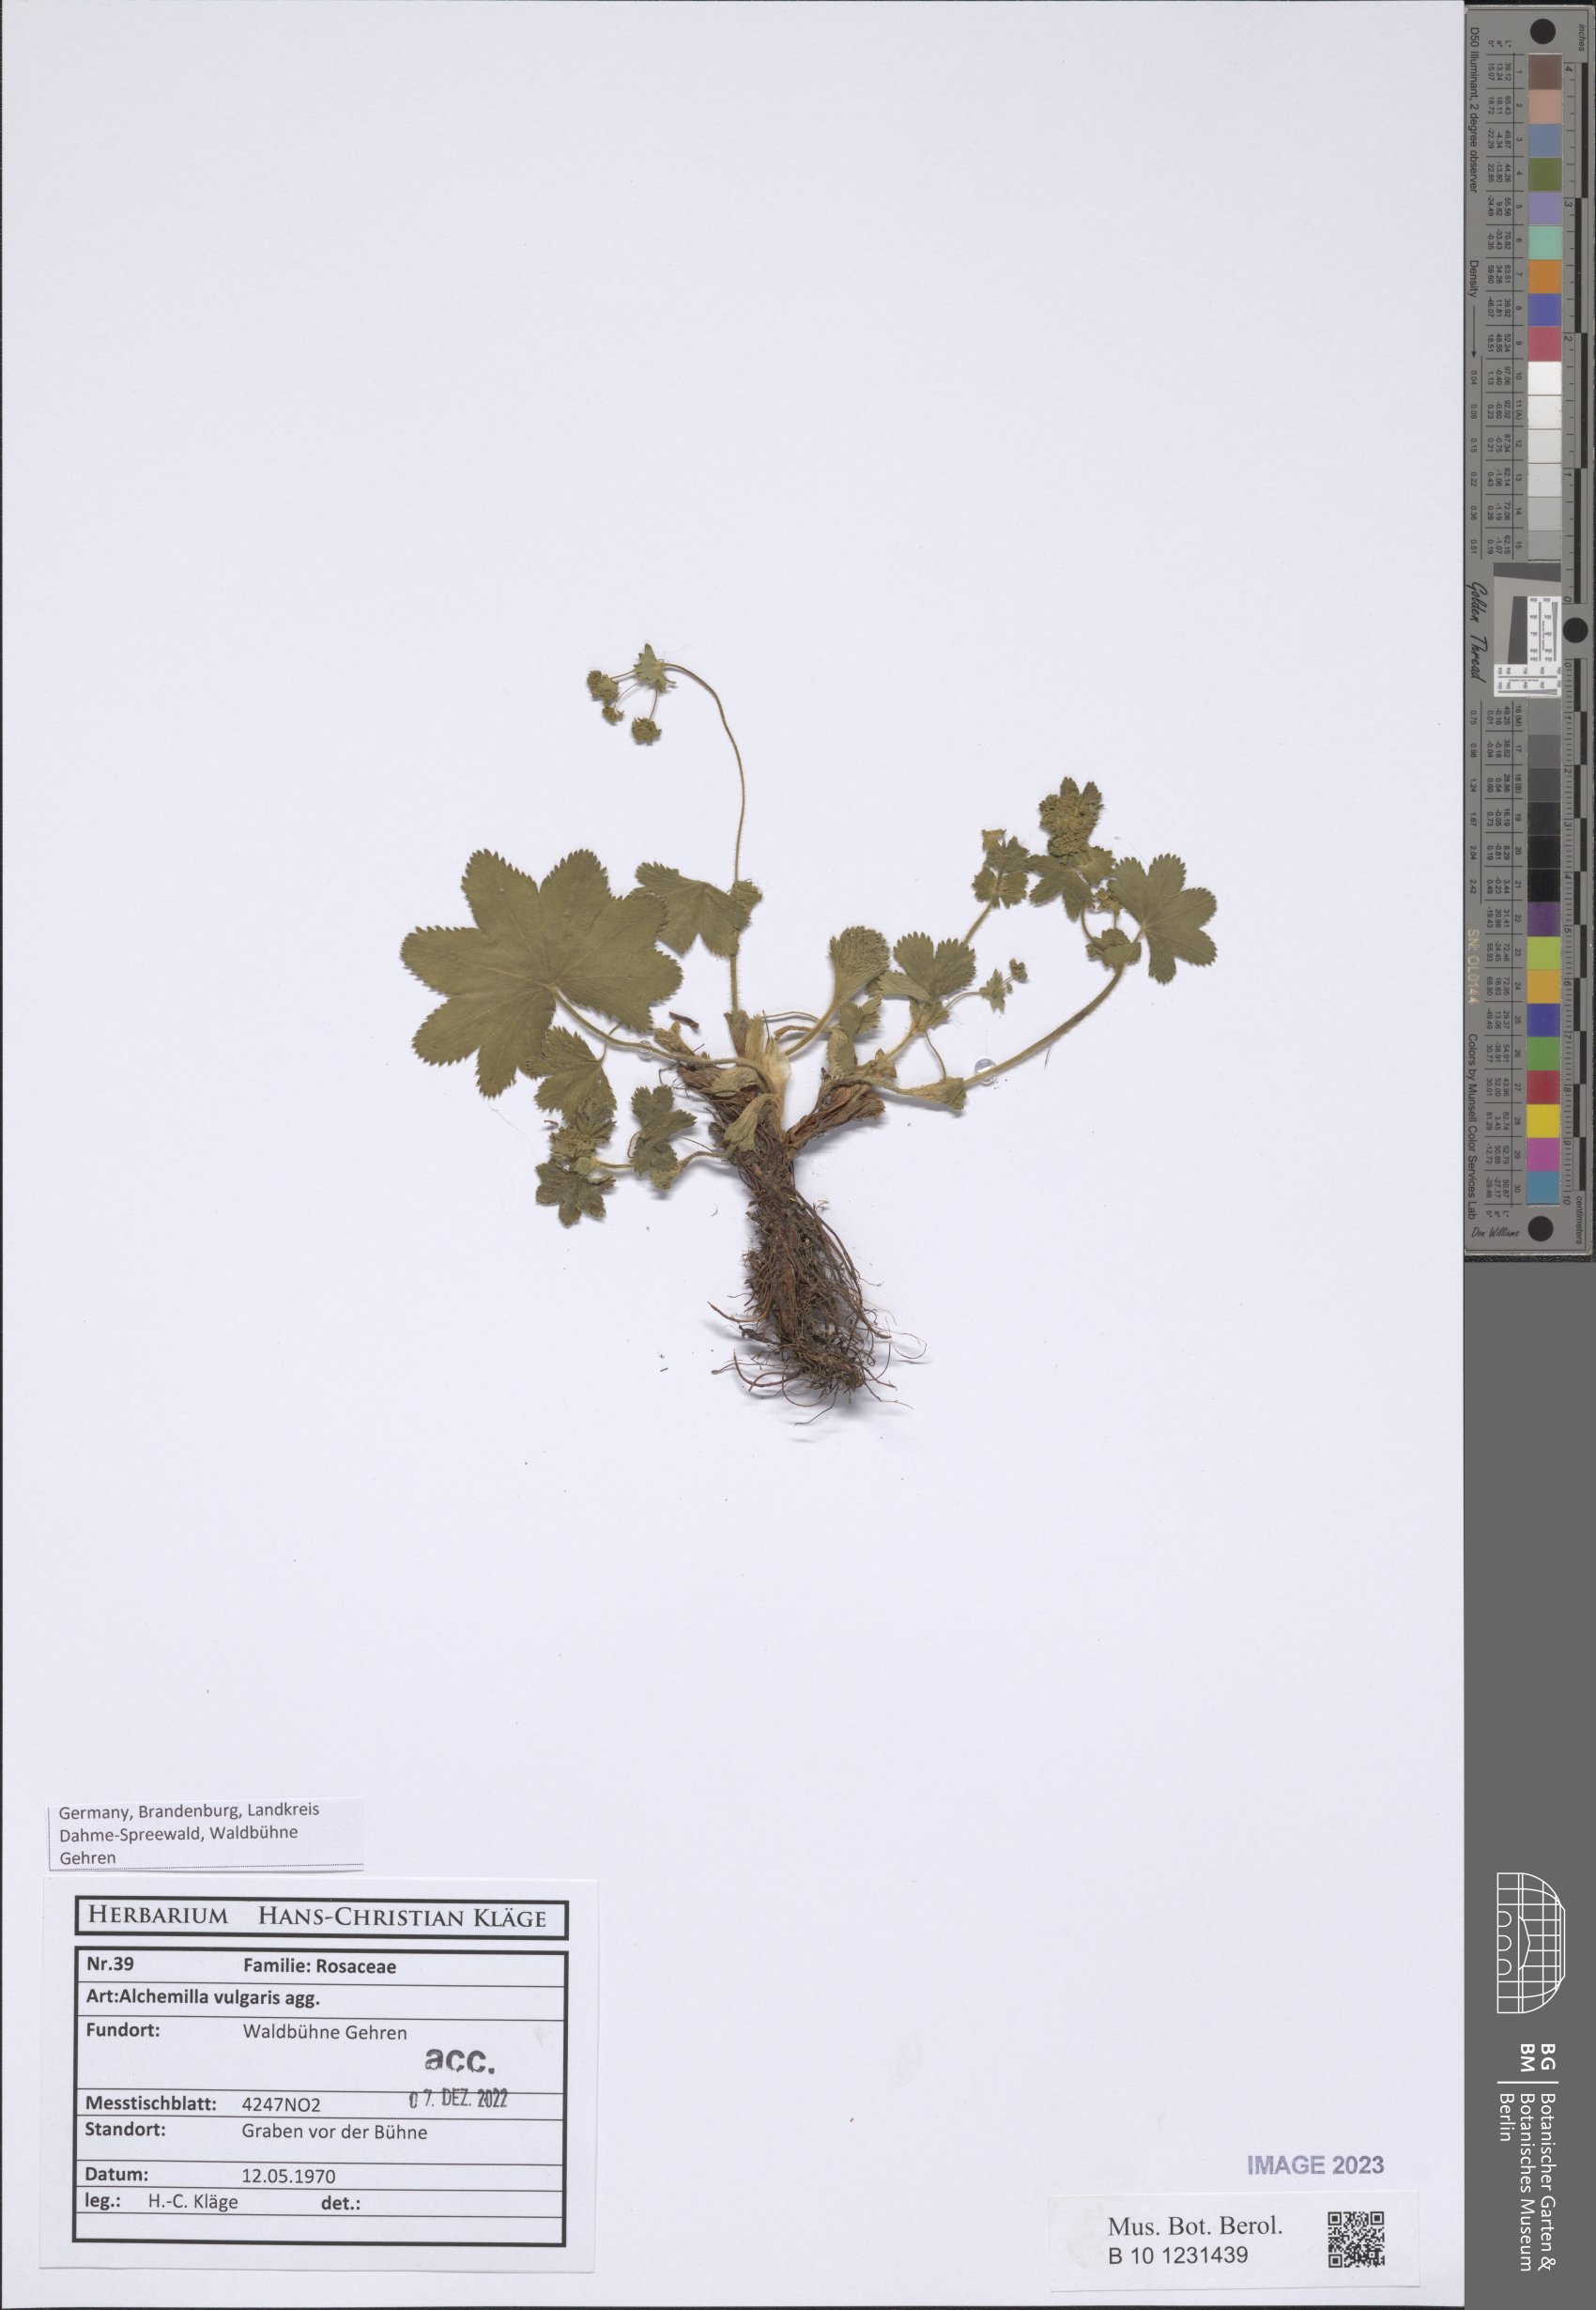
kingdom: Plantae
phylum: Tracheophyta
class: Magnoliopsida
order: Rosales
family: Rosaceae
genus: Alchemilla
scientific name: Alchemilla vulgaris
